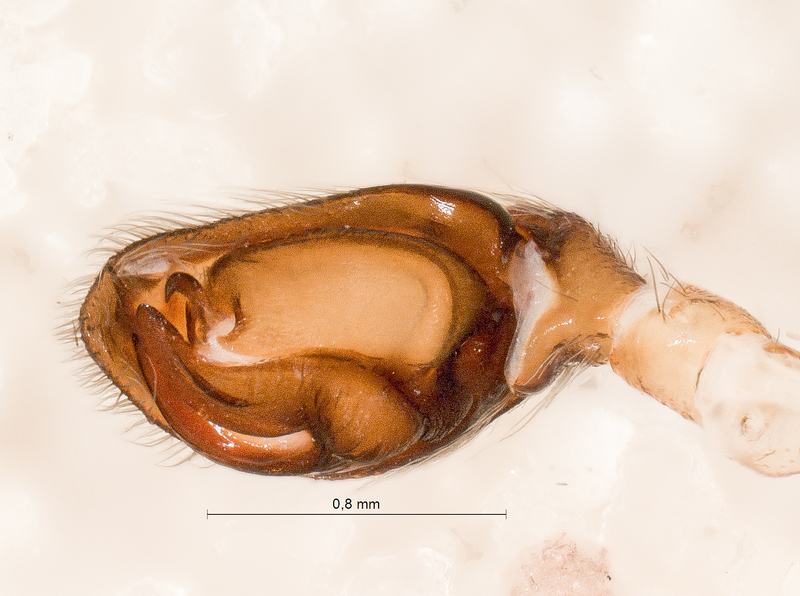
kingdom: Animalia
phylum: Arthropoda
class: Arachnida
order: Araneae
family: Gnaphosidae
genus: Haplodrassus
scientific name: Haplodrassus signifer
